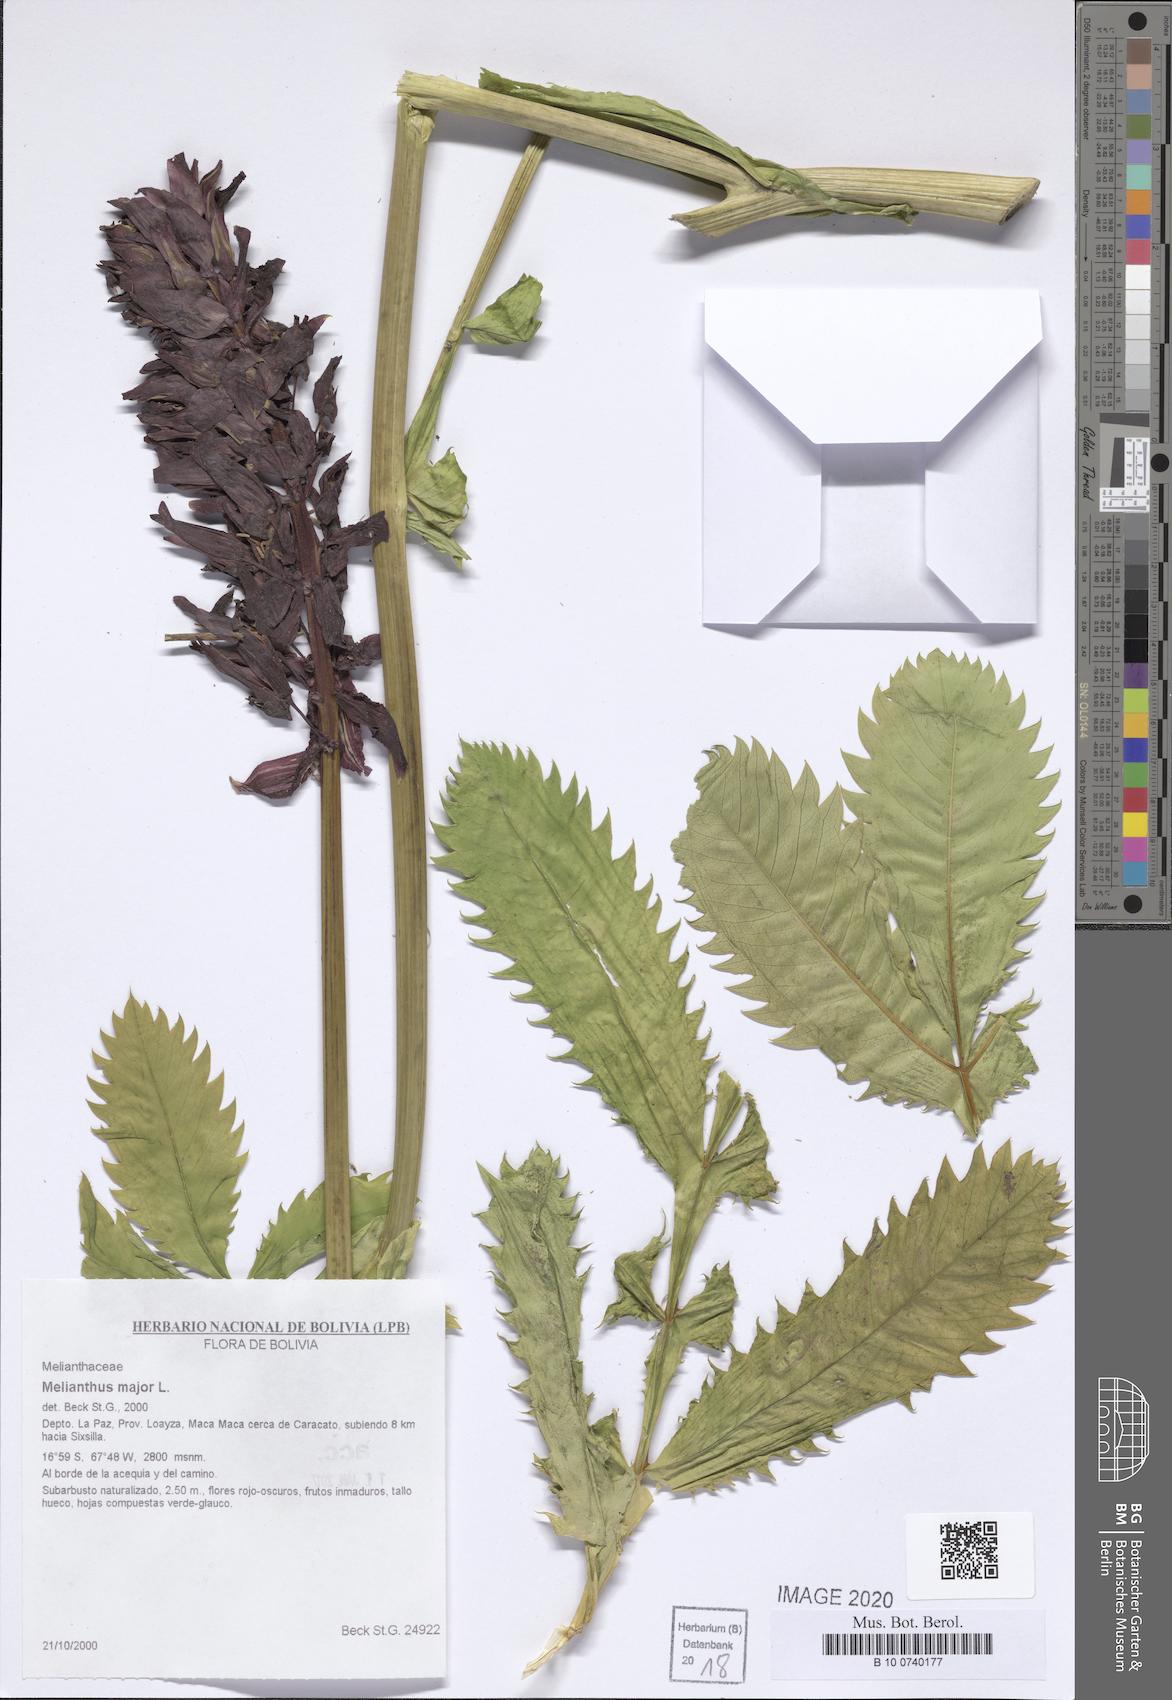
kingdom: Plantae
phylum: Tracheophyta
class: Magnoliopsida
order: Geraniales
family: Melianthaceae
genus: Melianthus
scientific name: Melianthus major
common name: Honey-flower
